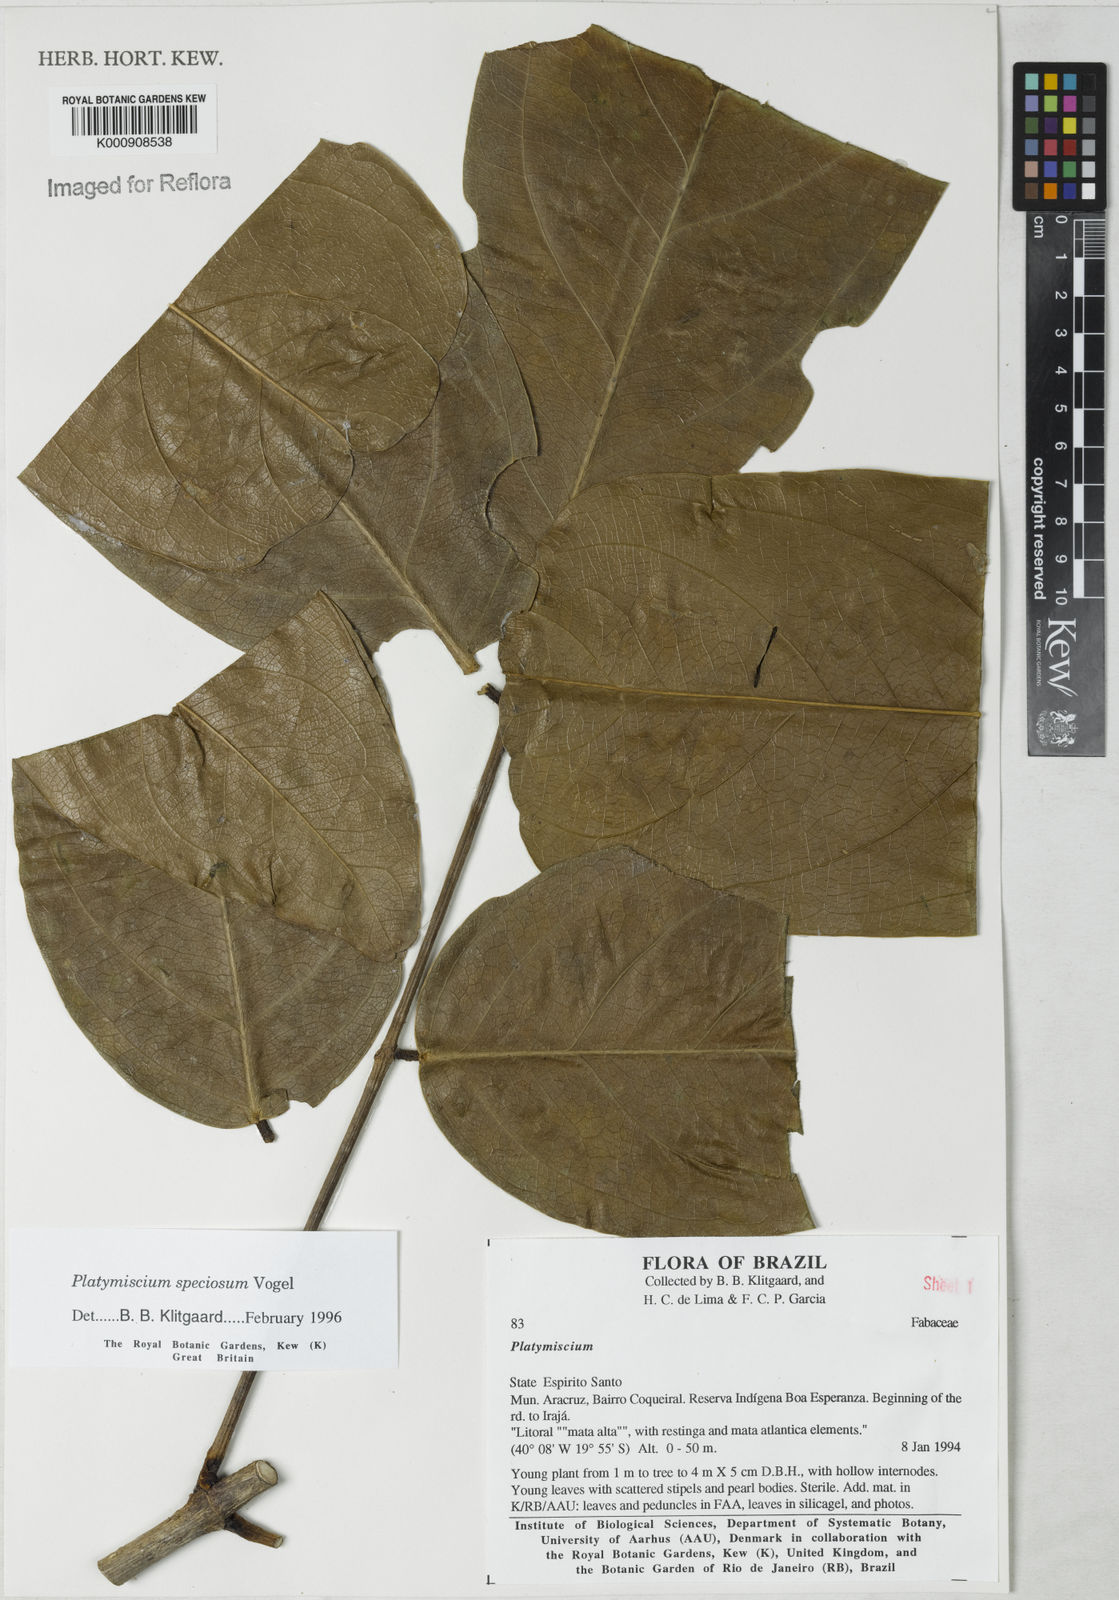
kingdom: Plantae
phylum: Tracheophyta
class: Magnoliopsida
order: Fabales
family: Fabaceae
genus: Platymiscium
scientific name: Platymiscium speciosum
